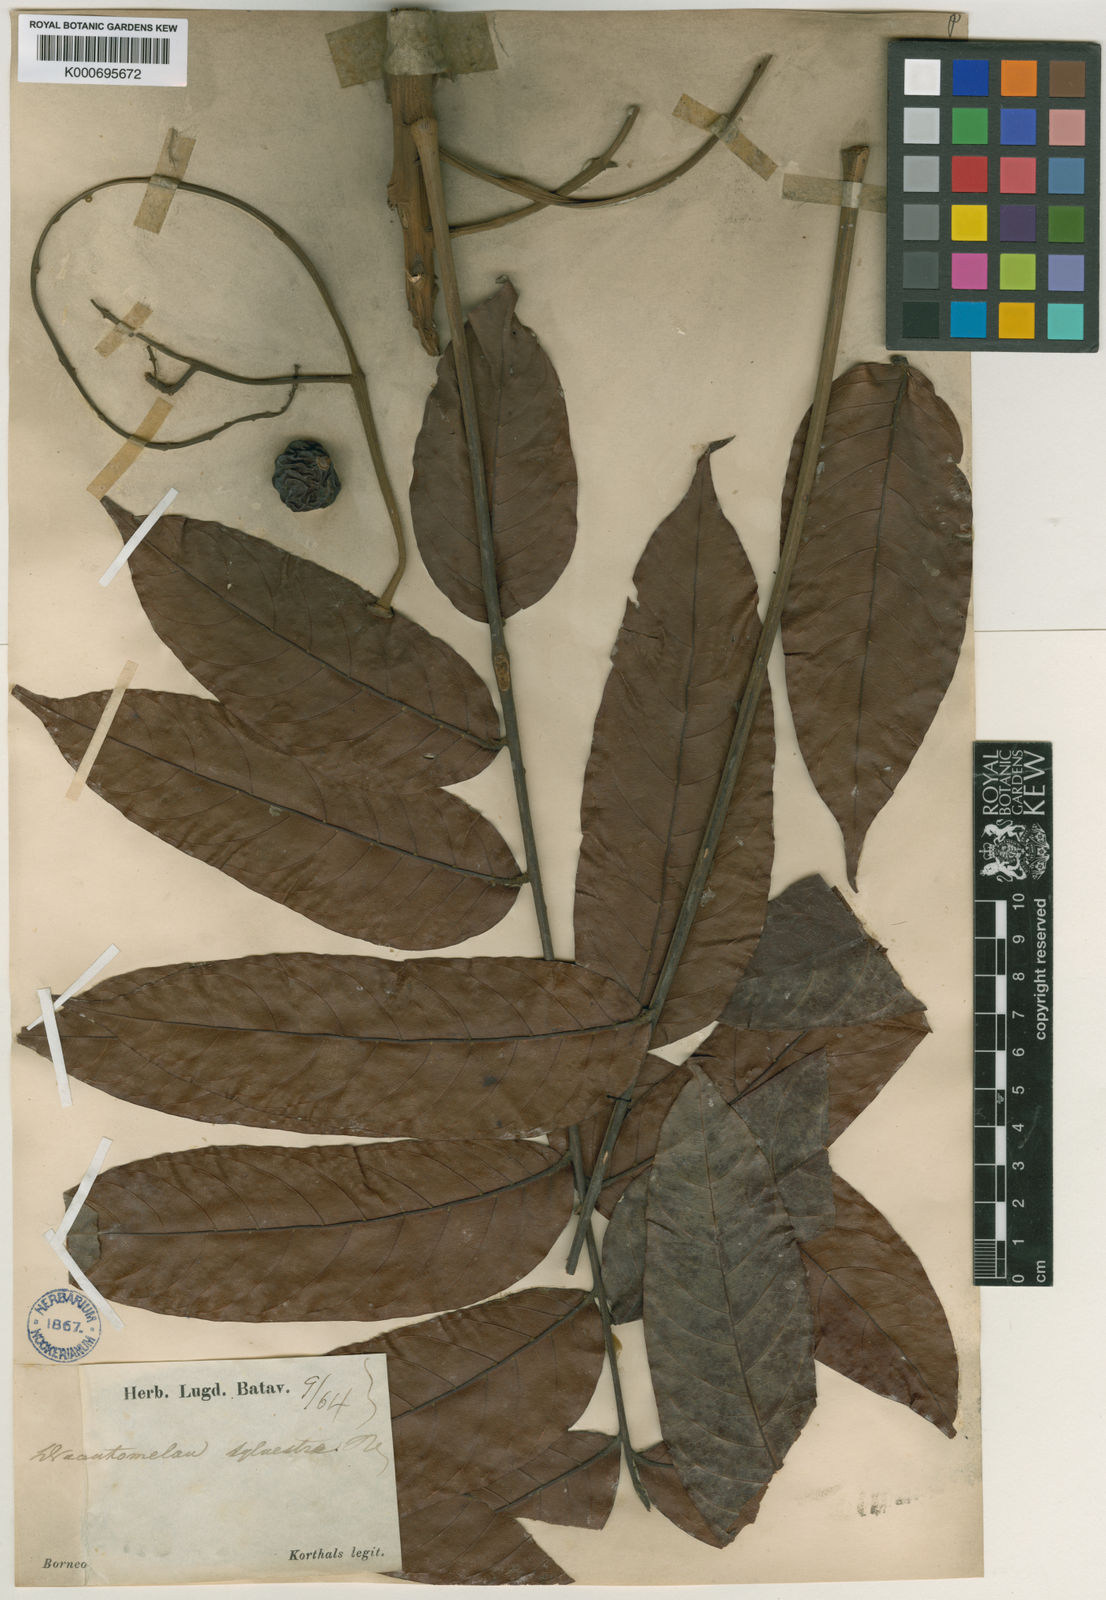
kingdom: Plantae
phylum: Tracheophyta
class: Magnoliopsida
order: Sapindales
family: Anacardiaceae
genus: Dracontomelon
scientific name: Dracontomelon dao
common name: Argus pheasant-tree
